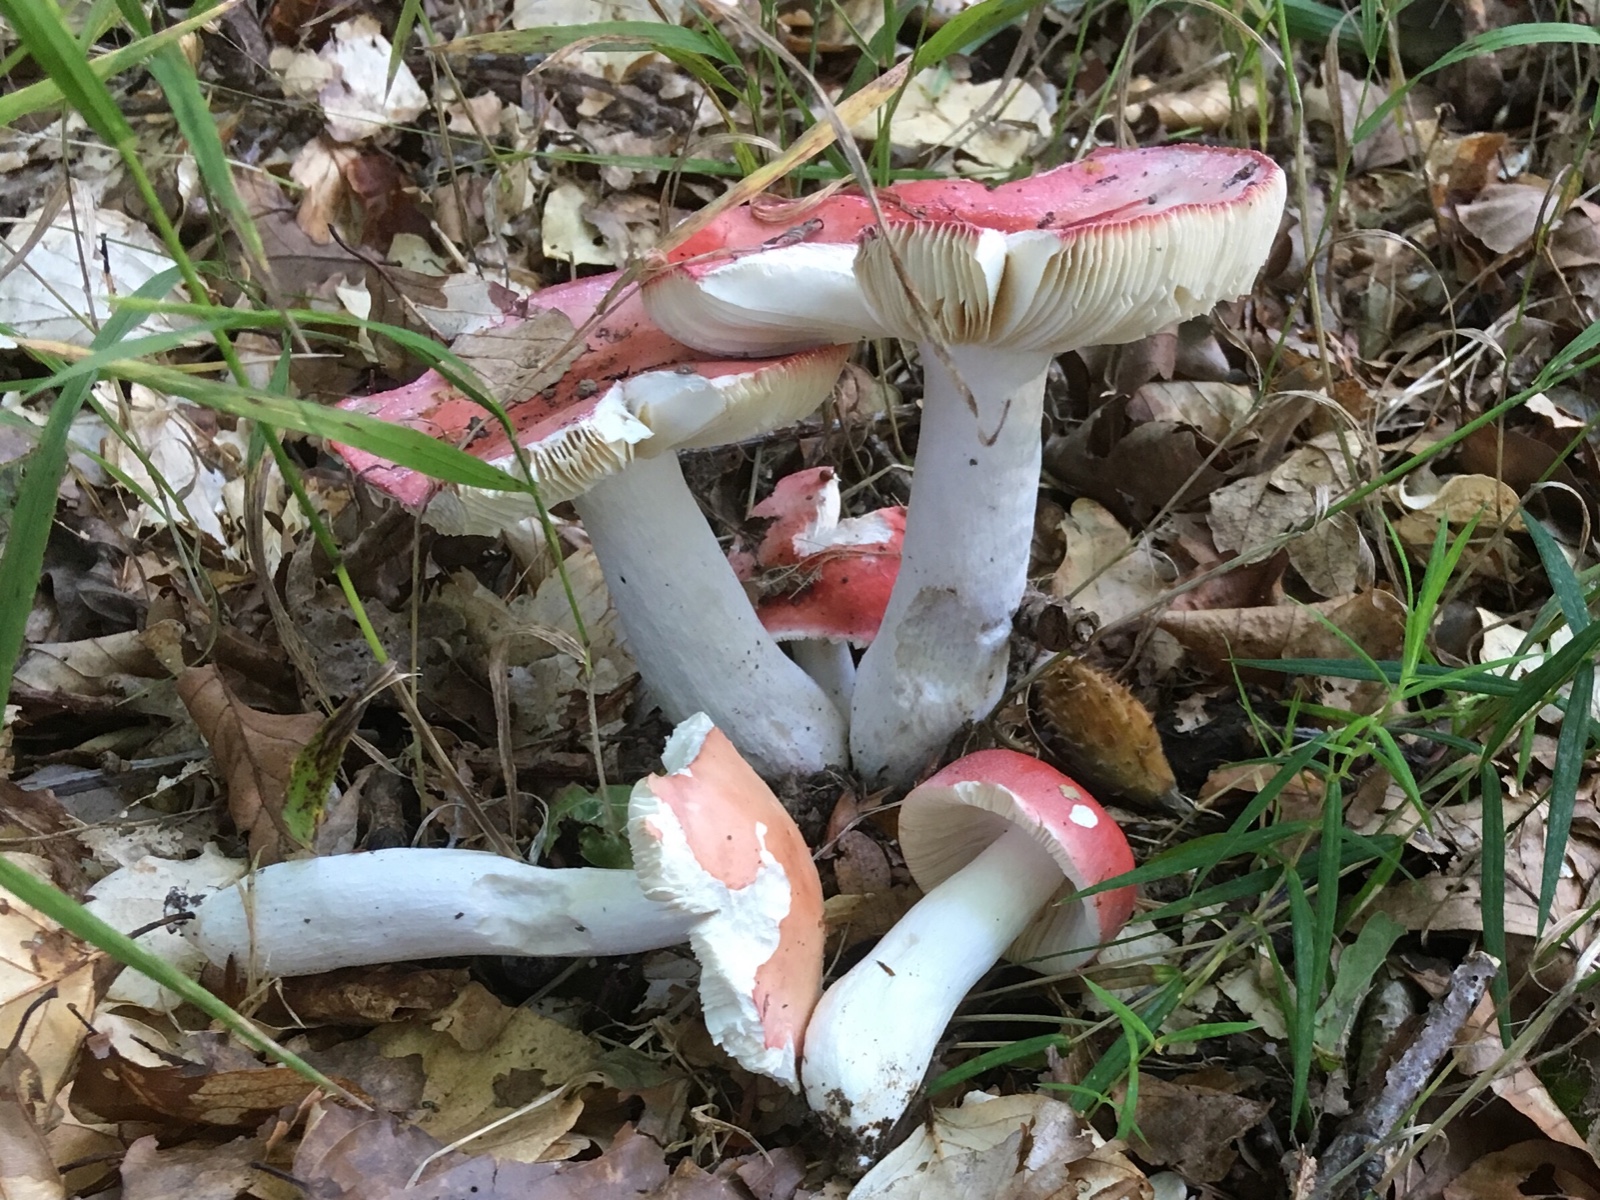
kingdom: Fungi
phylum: Basidiomycota
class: Agaricomycetes
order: Russulales
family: Russulaceae
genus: Russula
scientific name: Russula pseudointegra
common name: cinnoberrød skørhat
